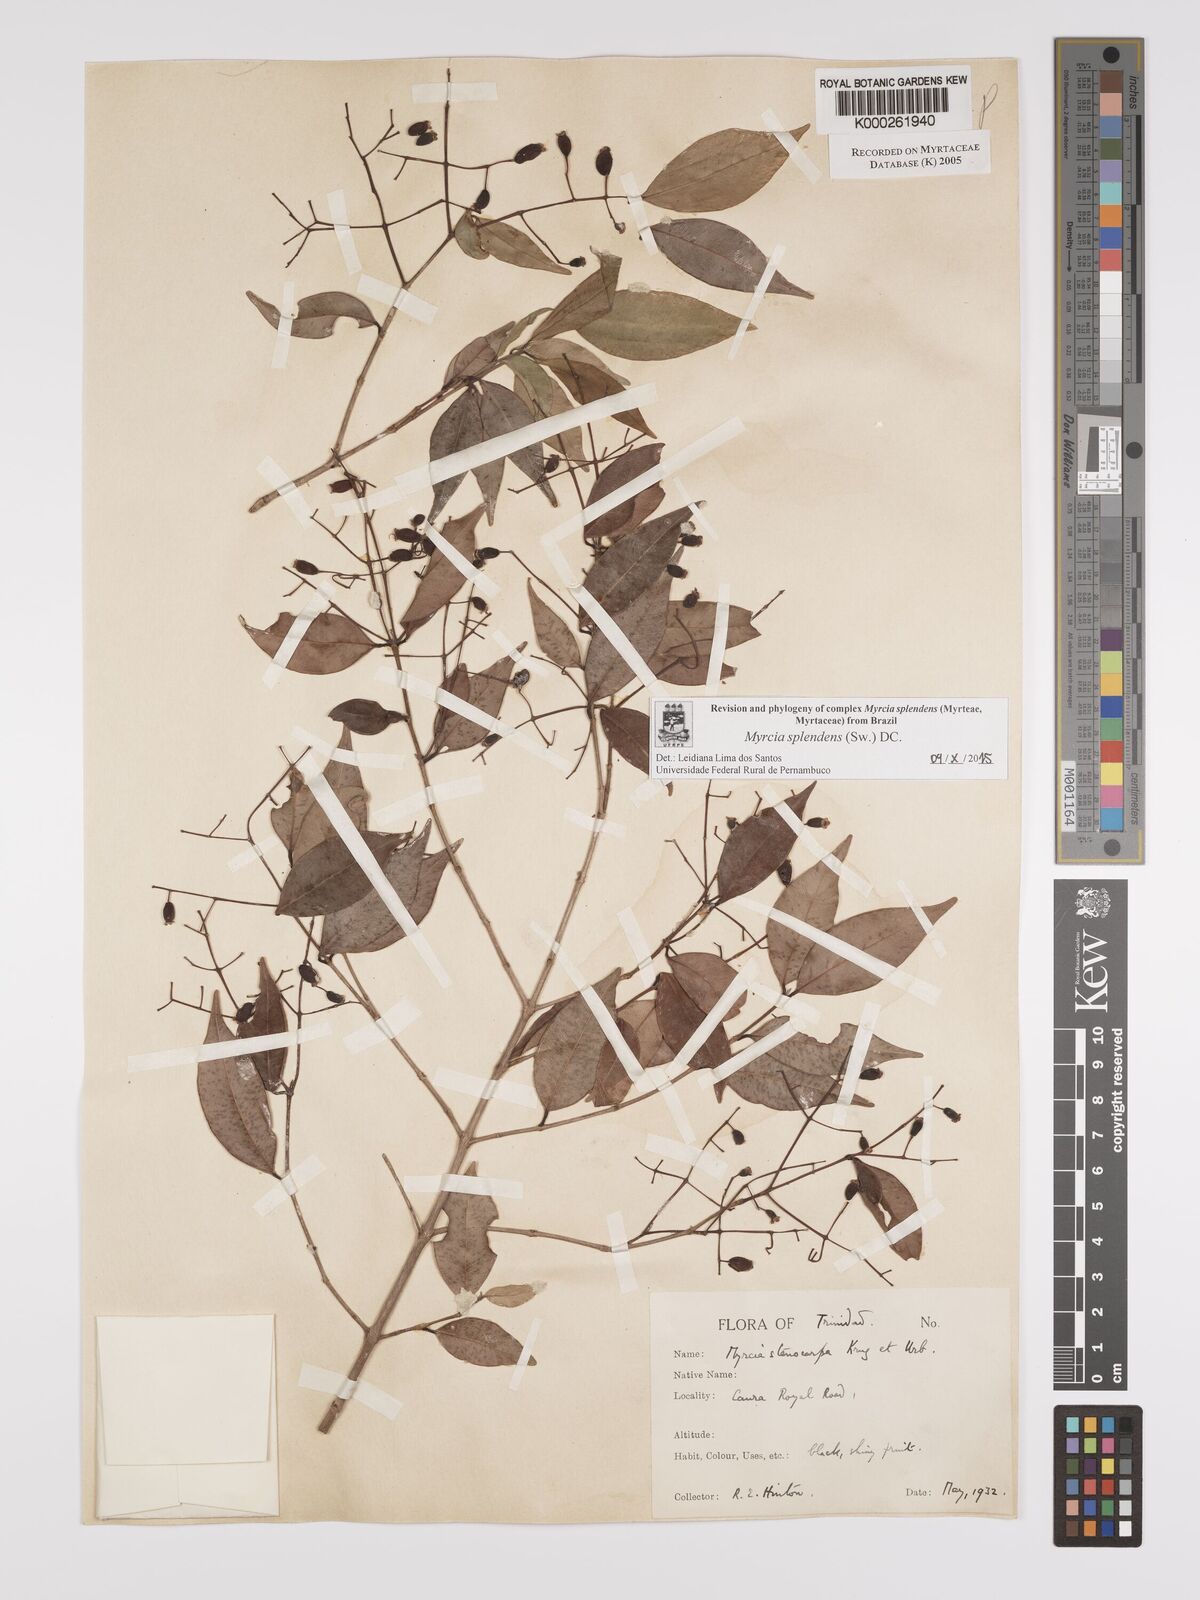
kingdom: Plantae
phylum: Tracheophyta
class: Magnoliopsida
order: Myrtales
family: Myrtaceae
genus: Myrcia
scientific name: Myrcia stenocarpa
